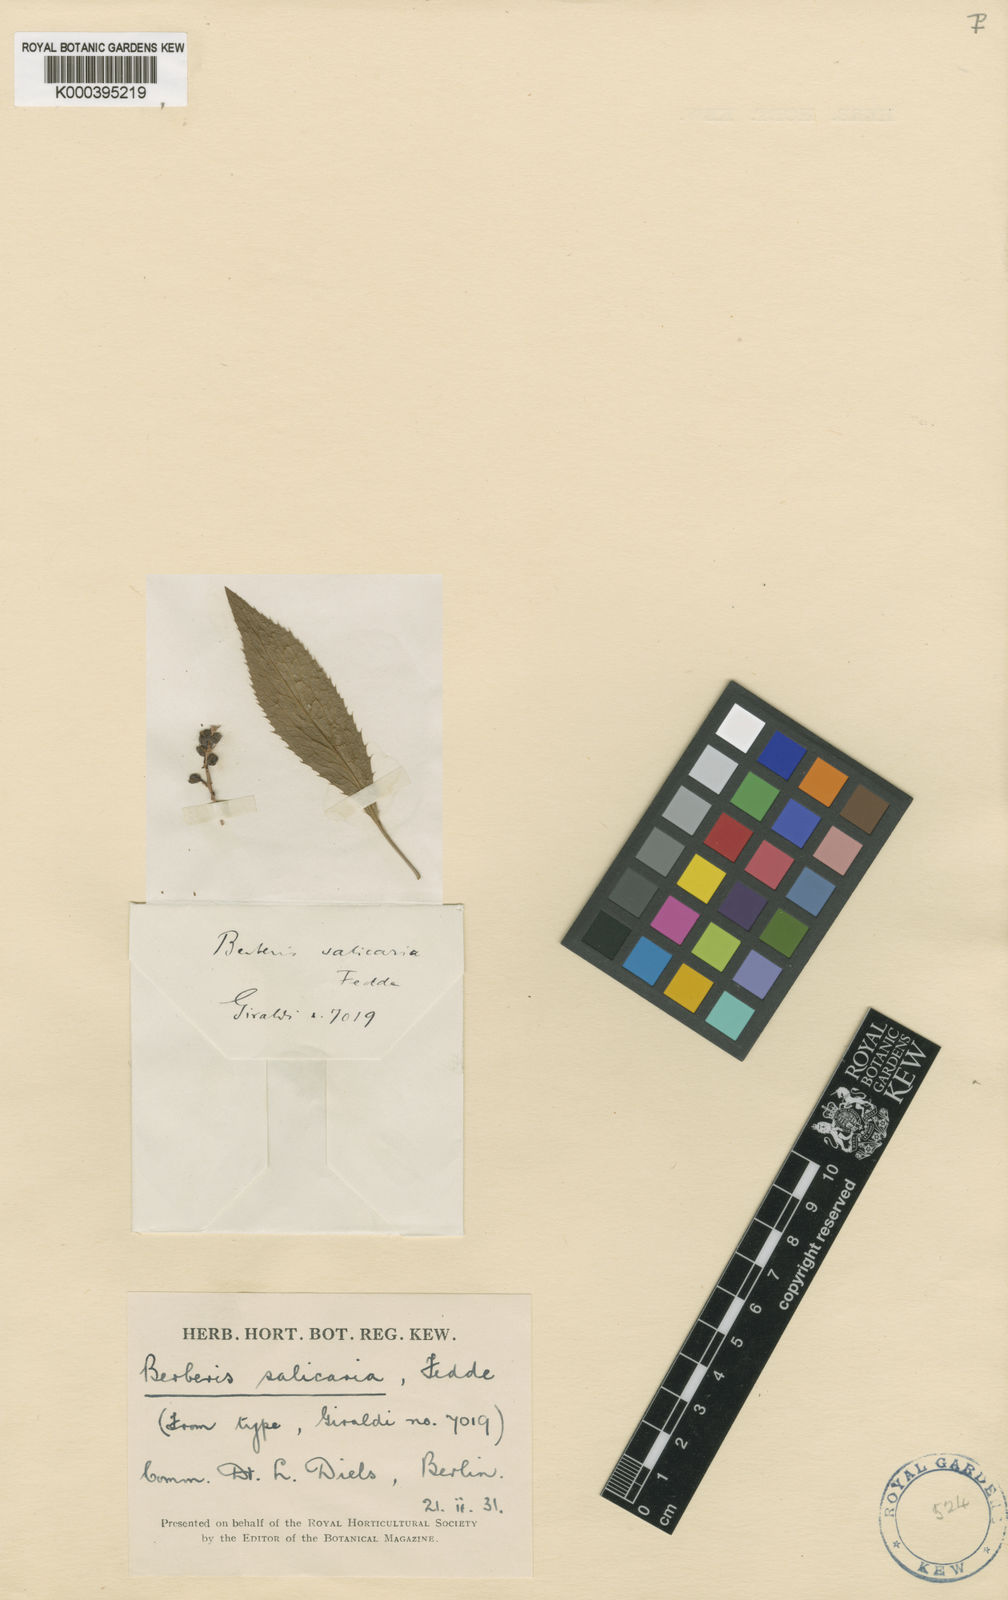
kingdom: Plantae
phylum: Tracheophyta
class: Magnoliopsida
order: Ranunculales
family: Berberidaceae
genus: Berberis
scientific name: Berberis salicaria
